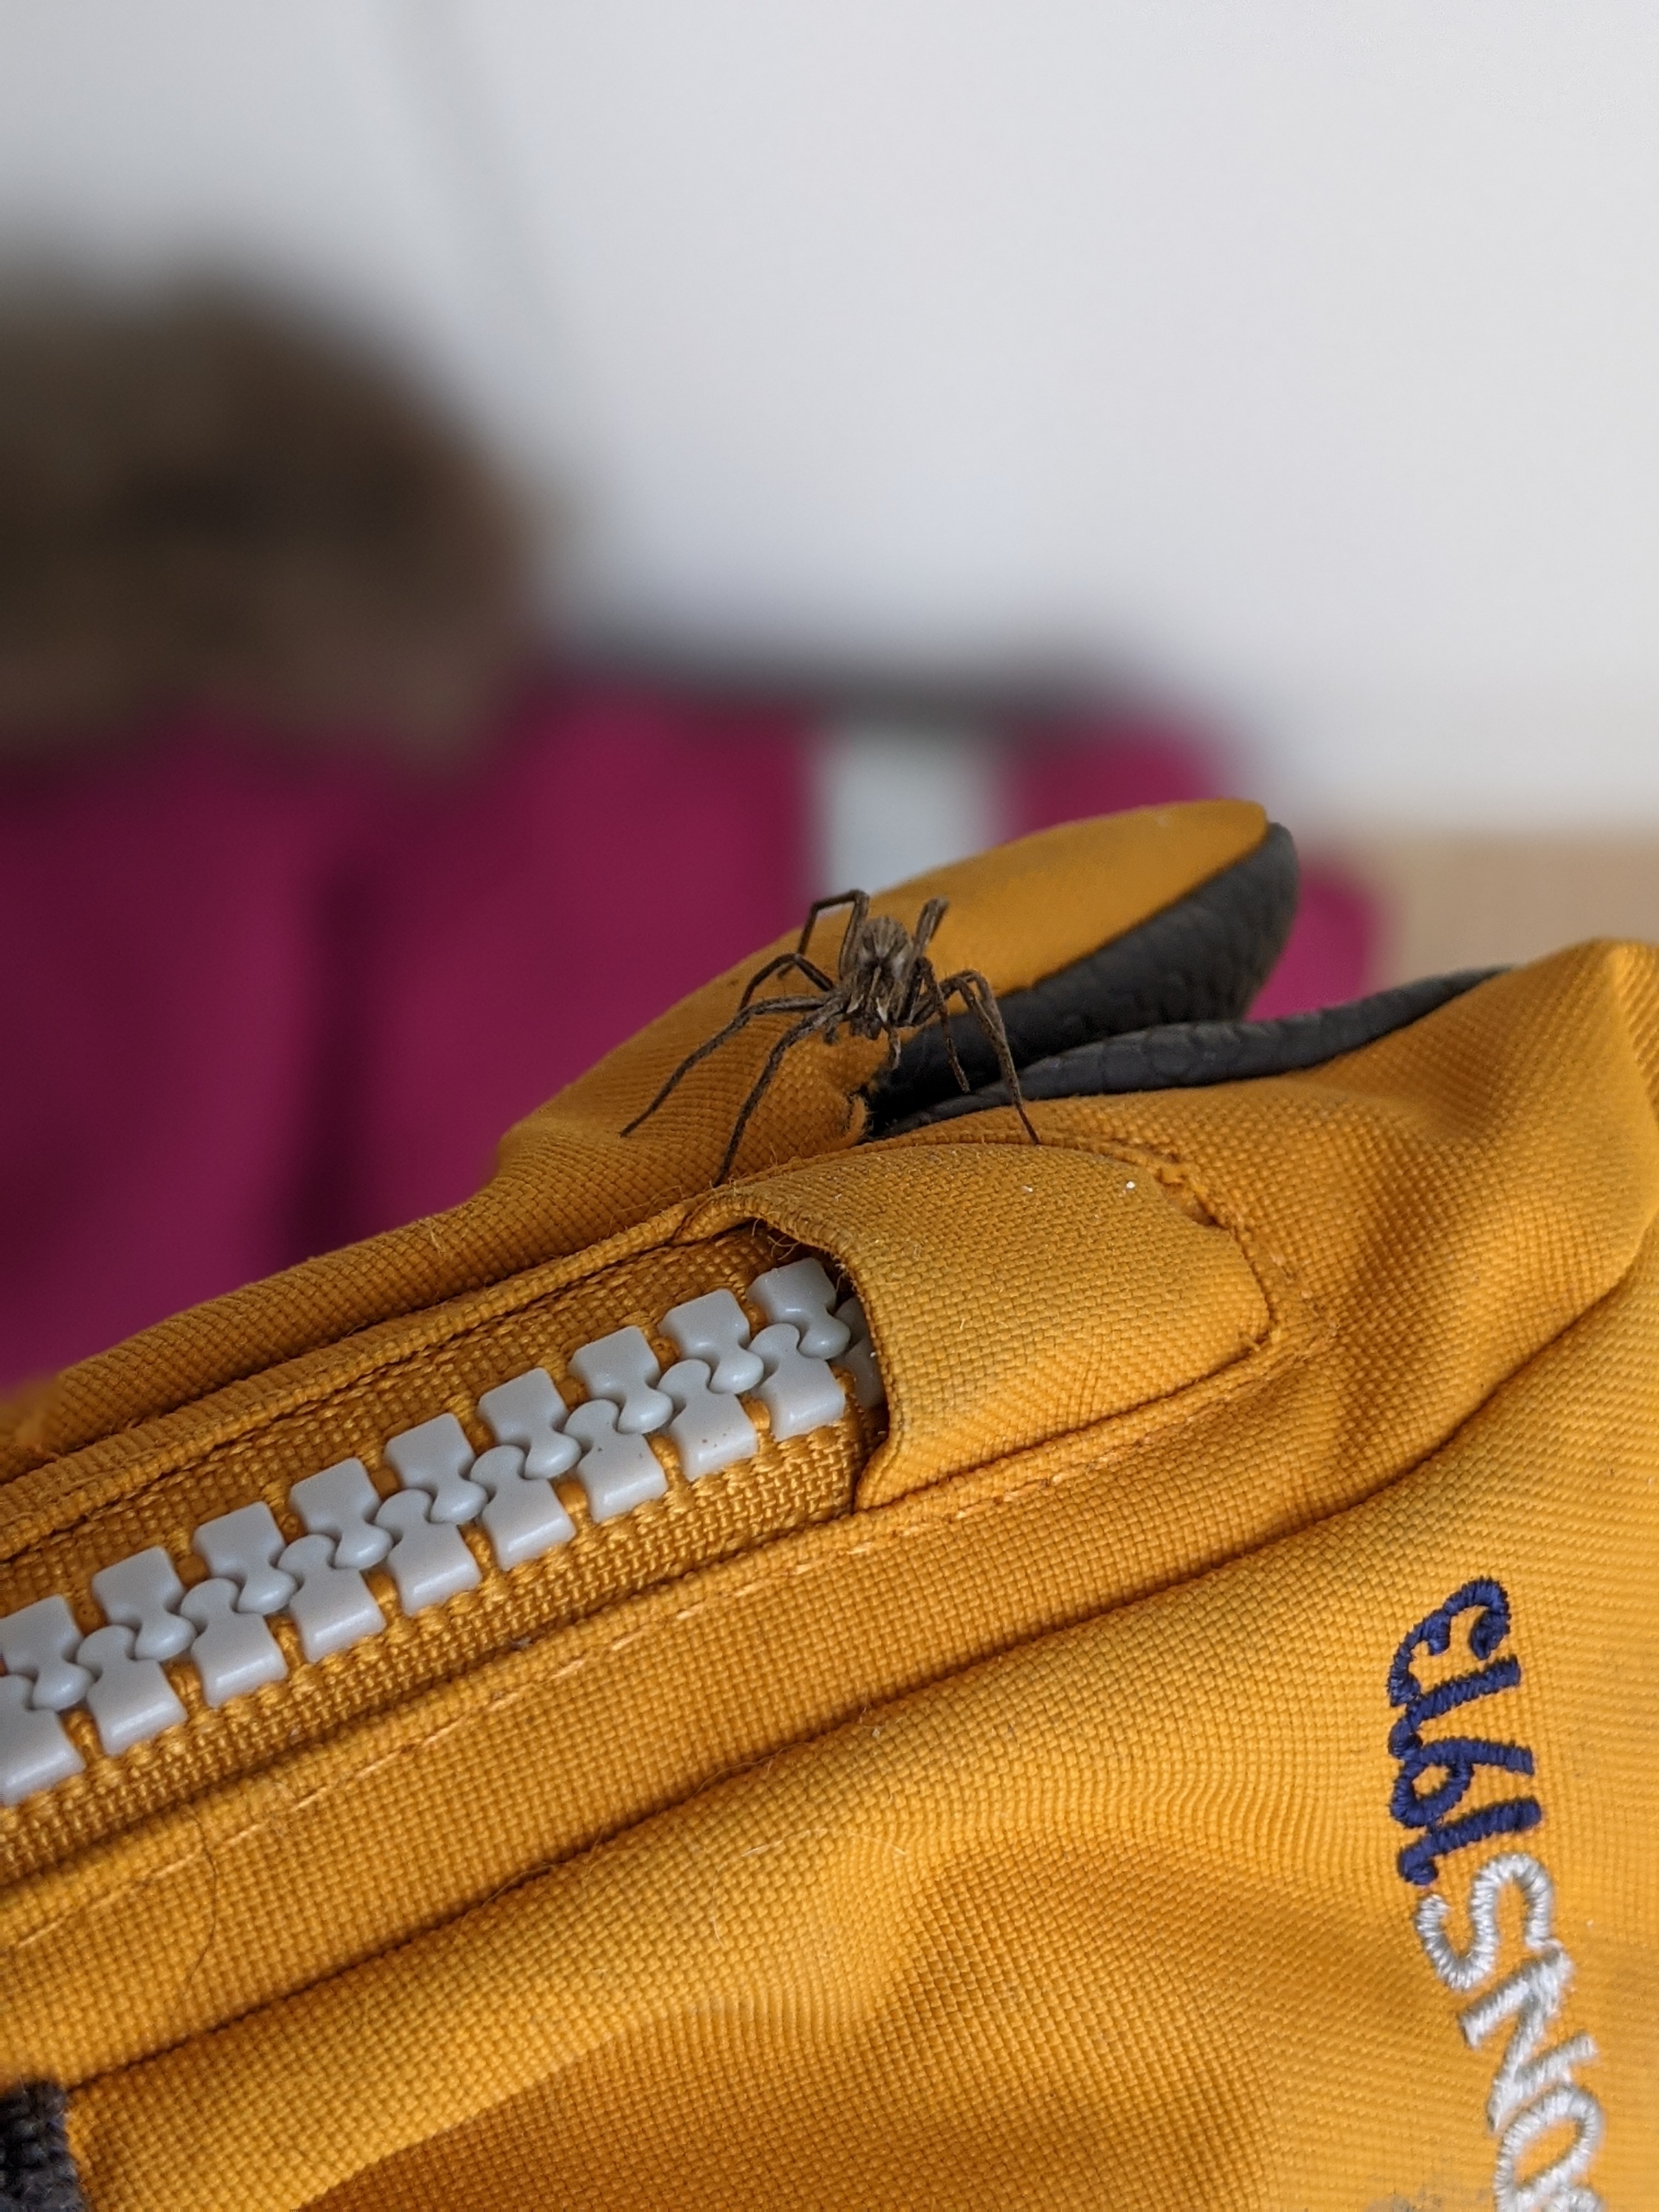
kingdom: Animalia
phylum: Arthropoda
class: Arachnida
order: Araneae
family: Pisauridae
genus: Pisaura
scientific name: Pisaura mirabilis
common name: Almindelig rovedderkop
